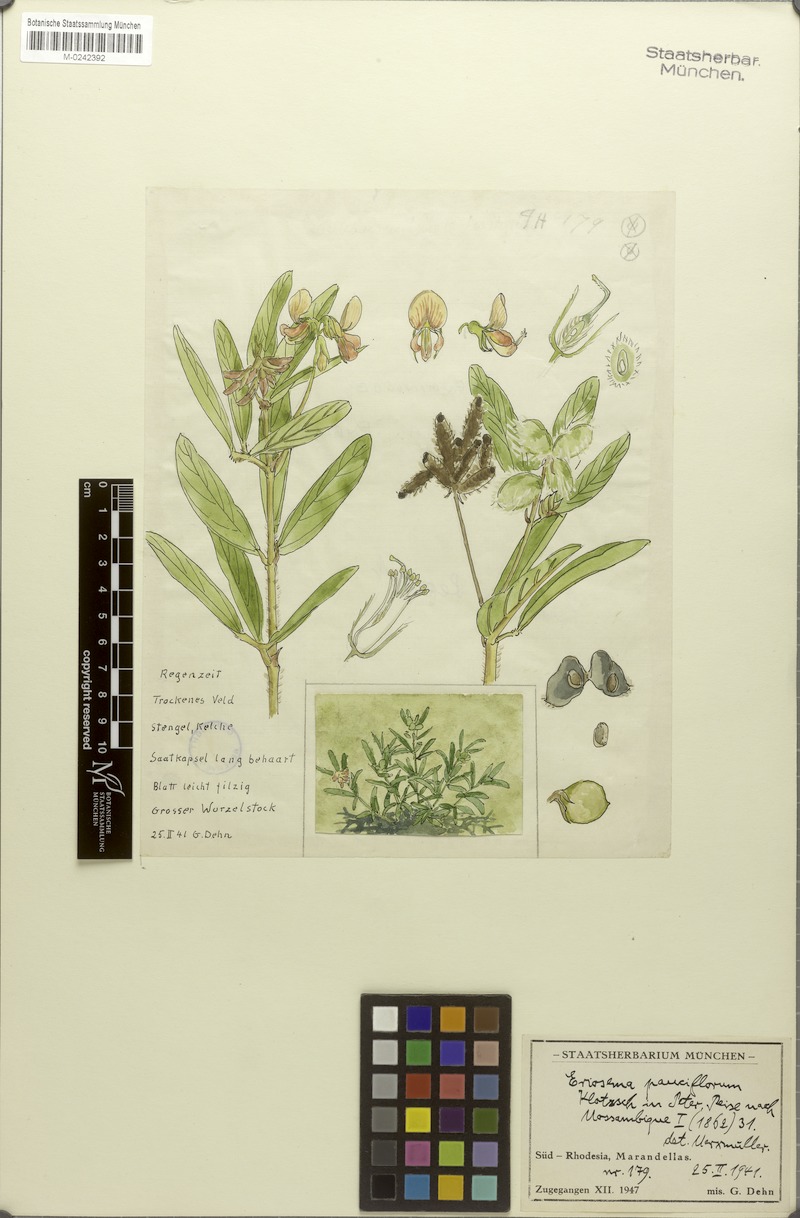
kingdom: Plantae
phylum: Tracheophyta
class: Magnoliopsida
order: Fabales
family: Fabaceae
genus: Eriosema
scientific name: Eriosema burkei
